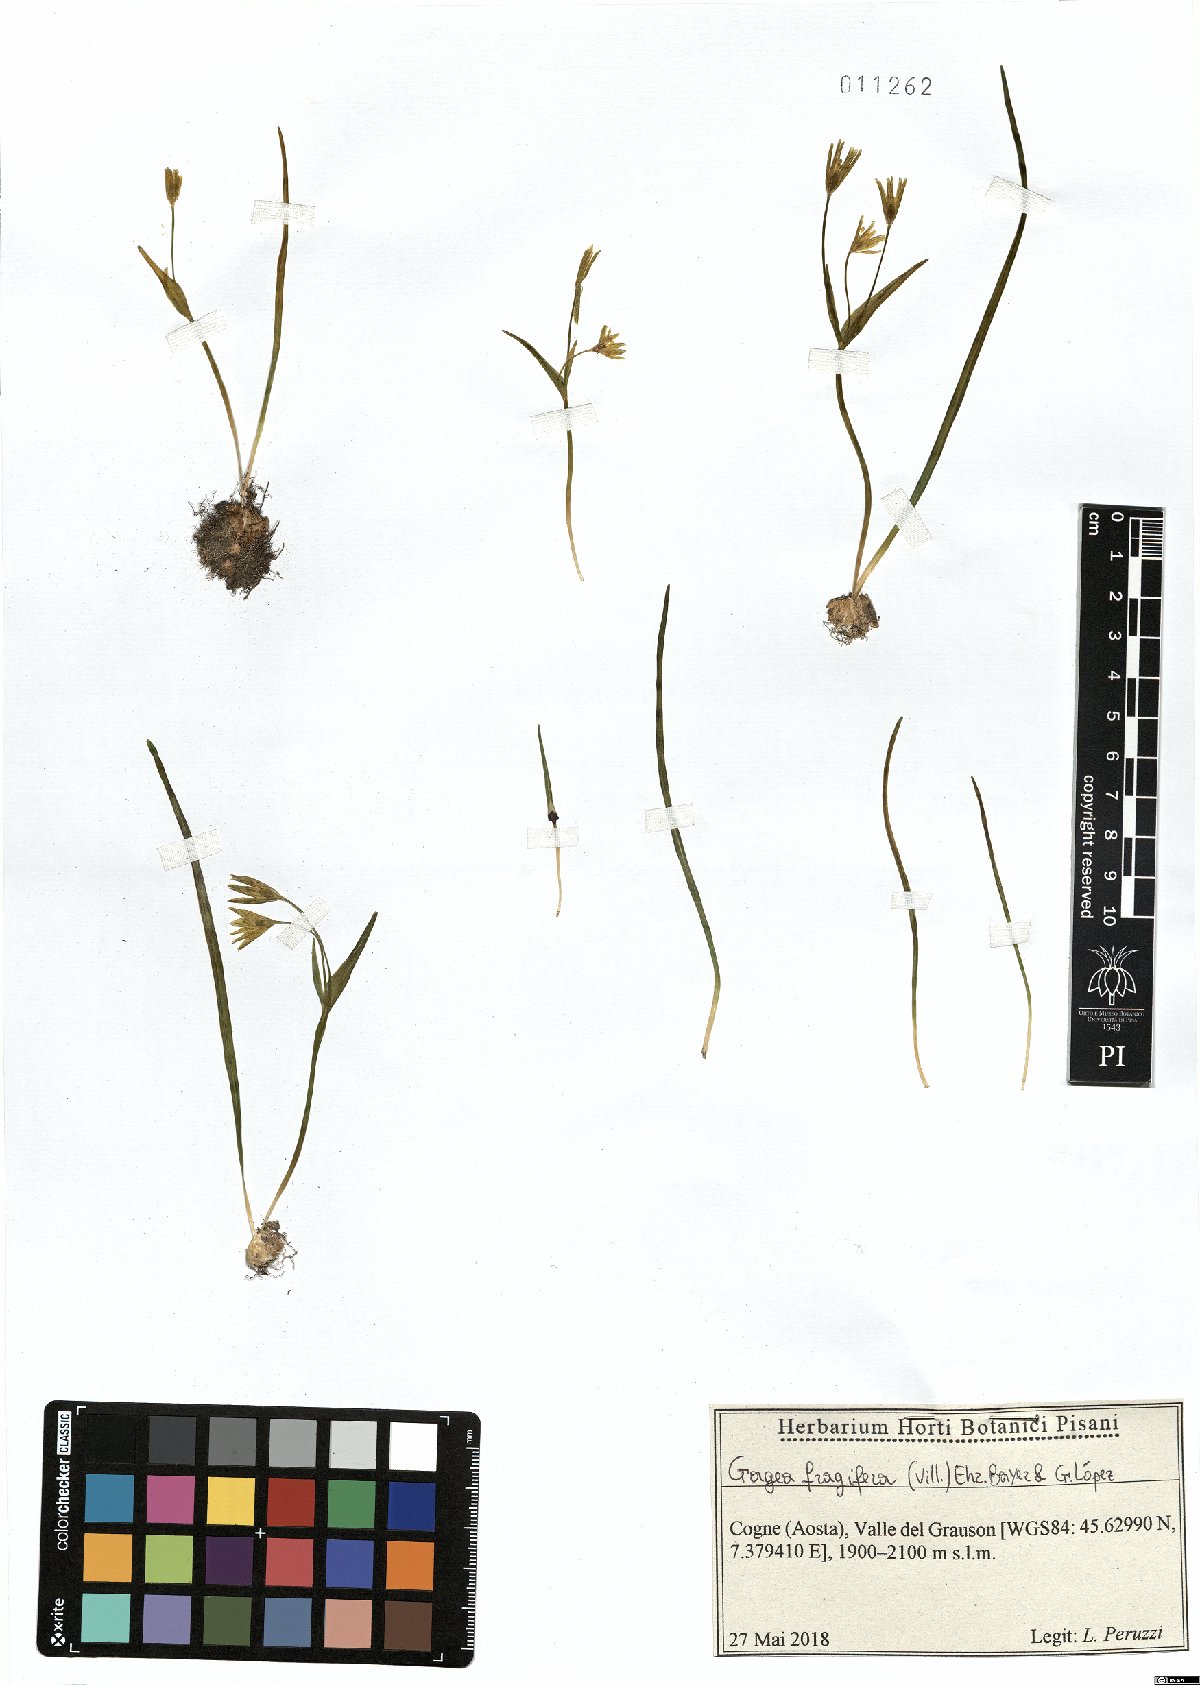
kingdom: Plantae
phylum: Tracheophyta
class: Liliopsida
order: Liliales
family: Liliaceae
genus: Gagea
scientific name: Gagea fragifera
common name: Lily
